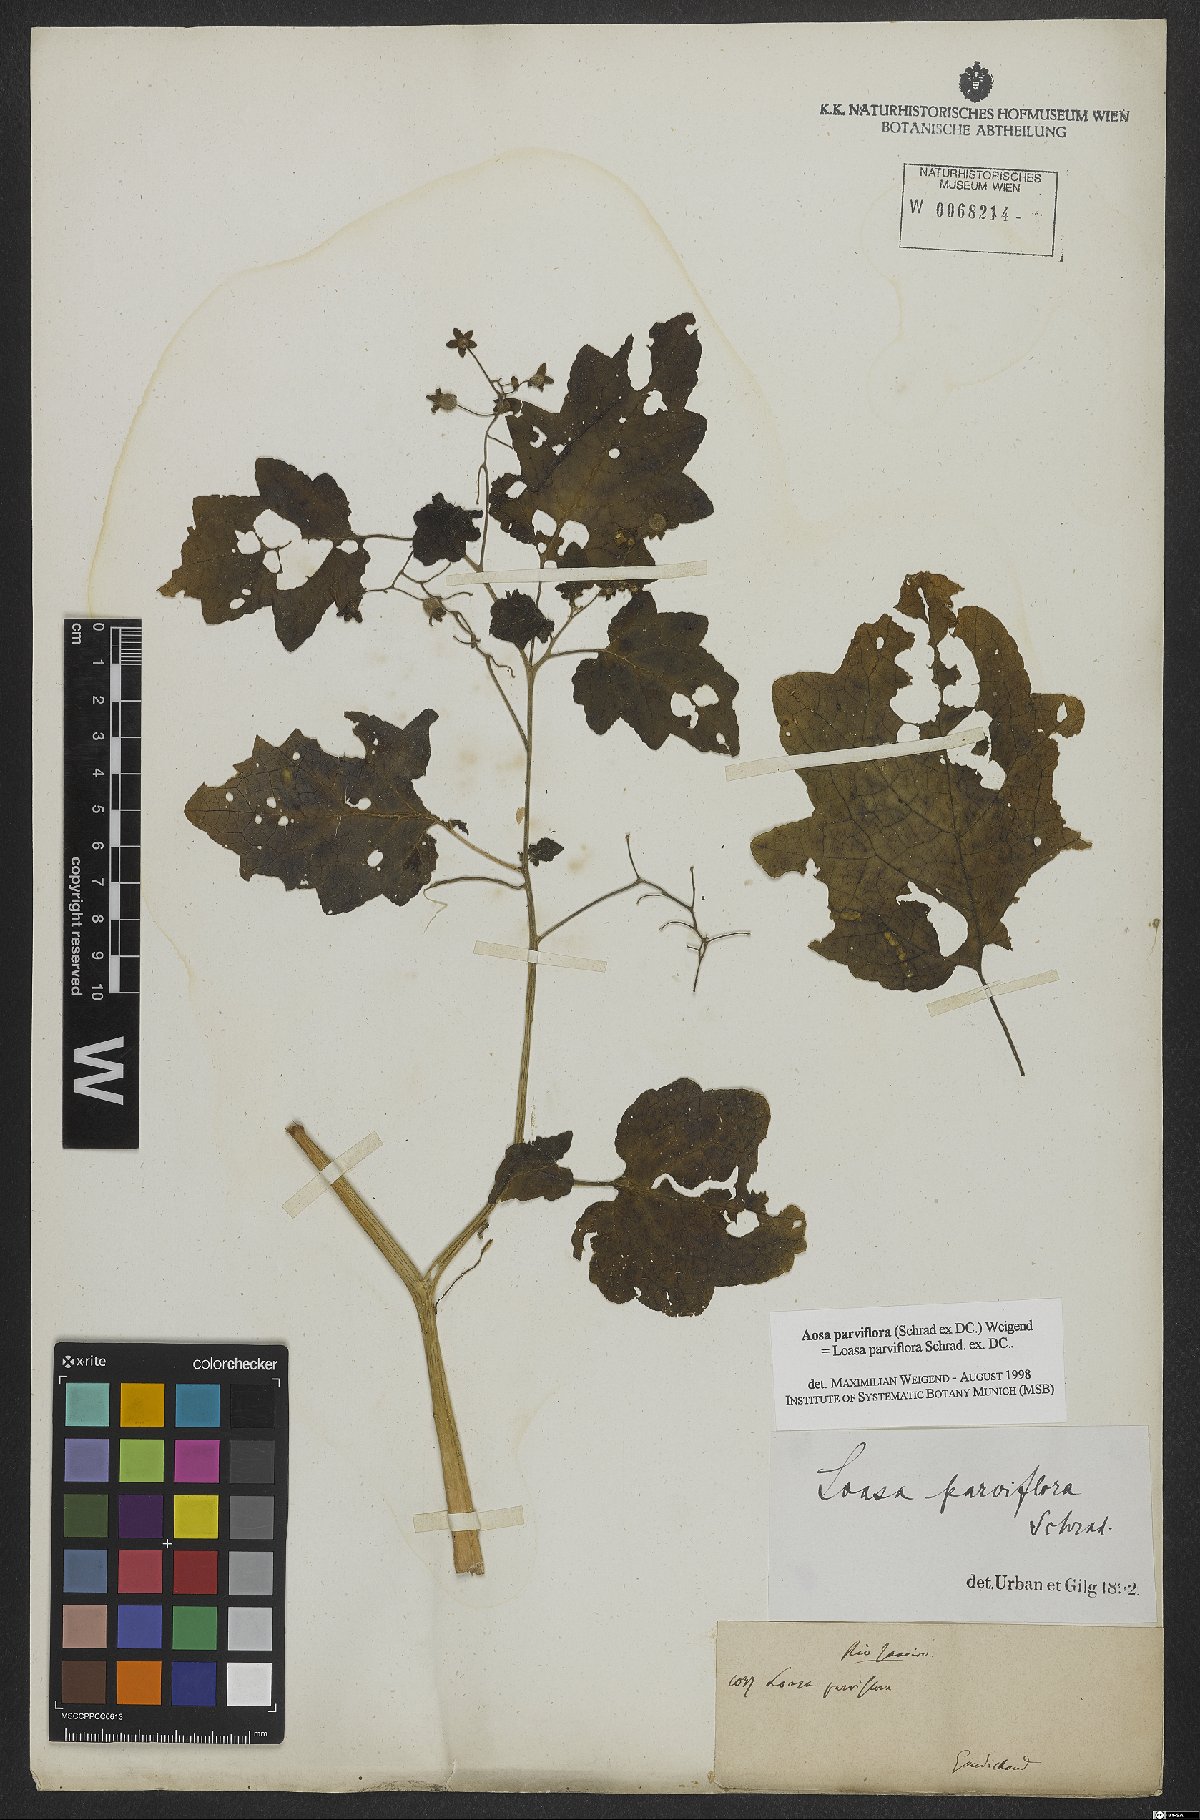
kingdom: Plantae
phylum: Tracheophyta
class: Magnoliopsida
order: Cornales
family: Loasaceae
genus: Aosa
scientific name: Aosa parviflora
